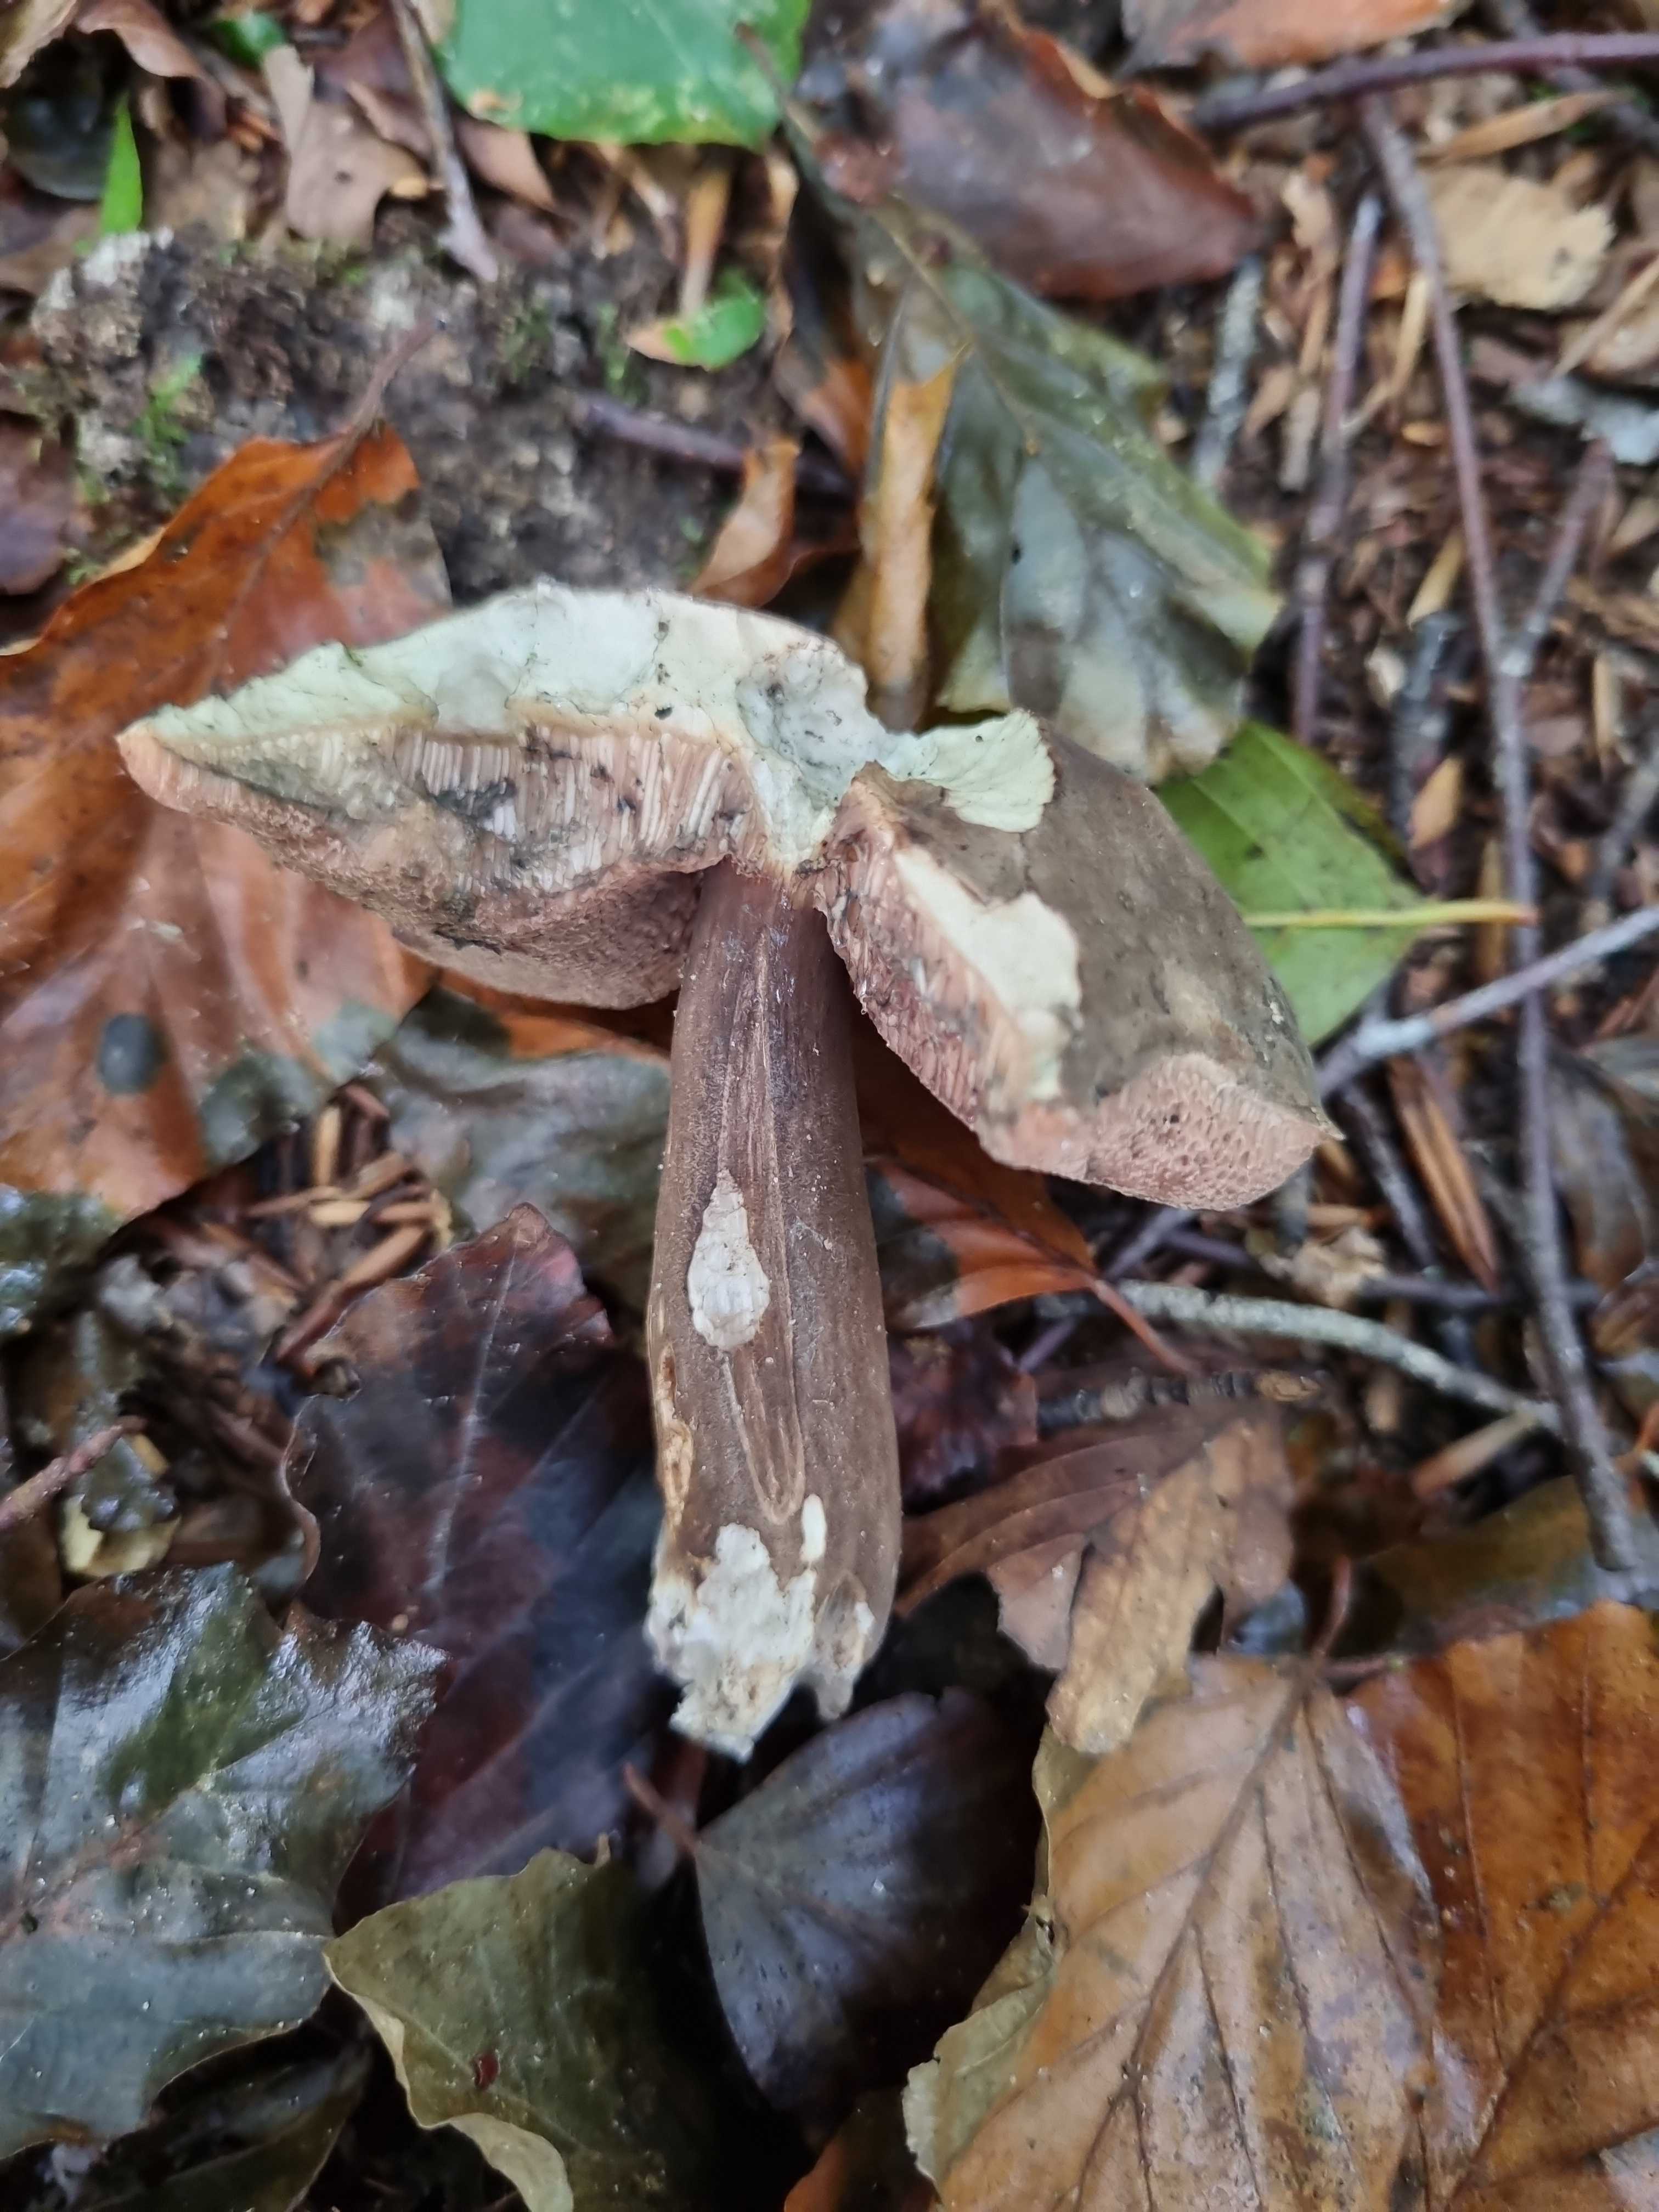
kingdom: Fungi
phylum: Basidiomycota
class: Agaricomycetes
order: Boletales
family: Boletaceae
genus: Porphyrellus
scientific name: Porphyrellus porphyrosporus
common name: sodrørhat
